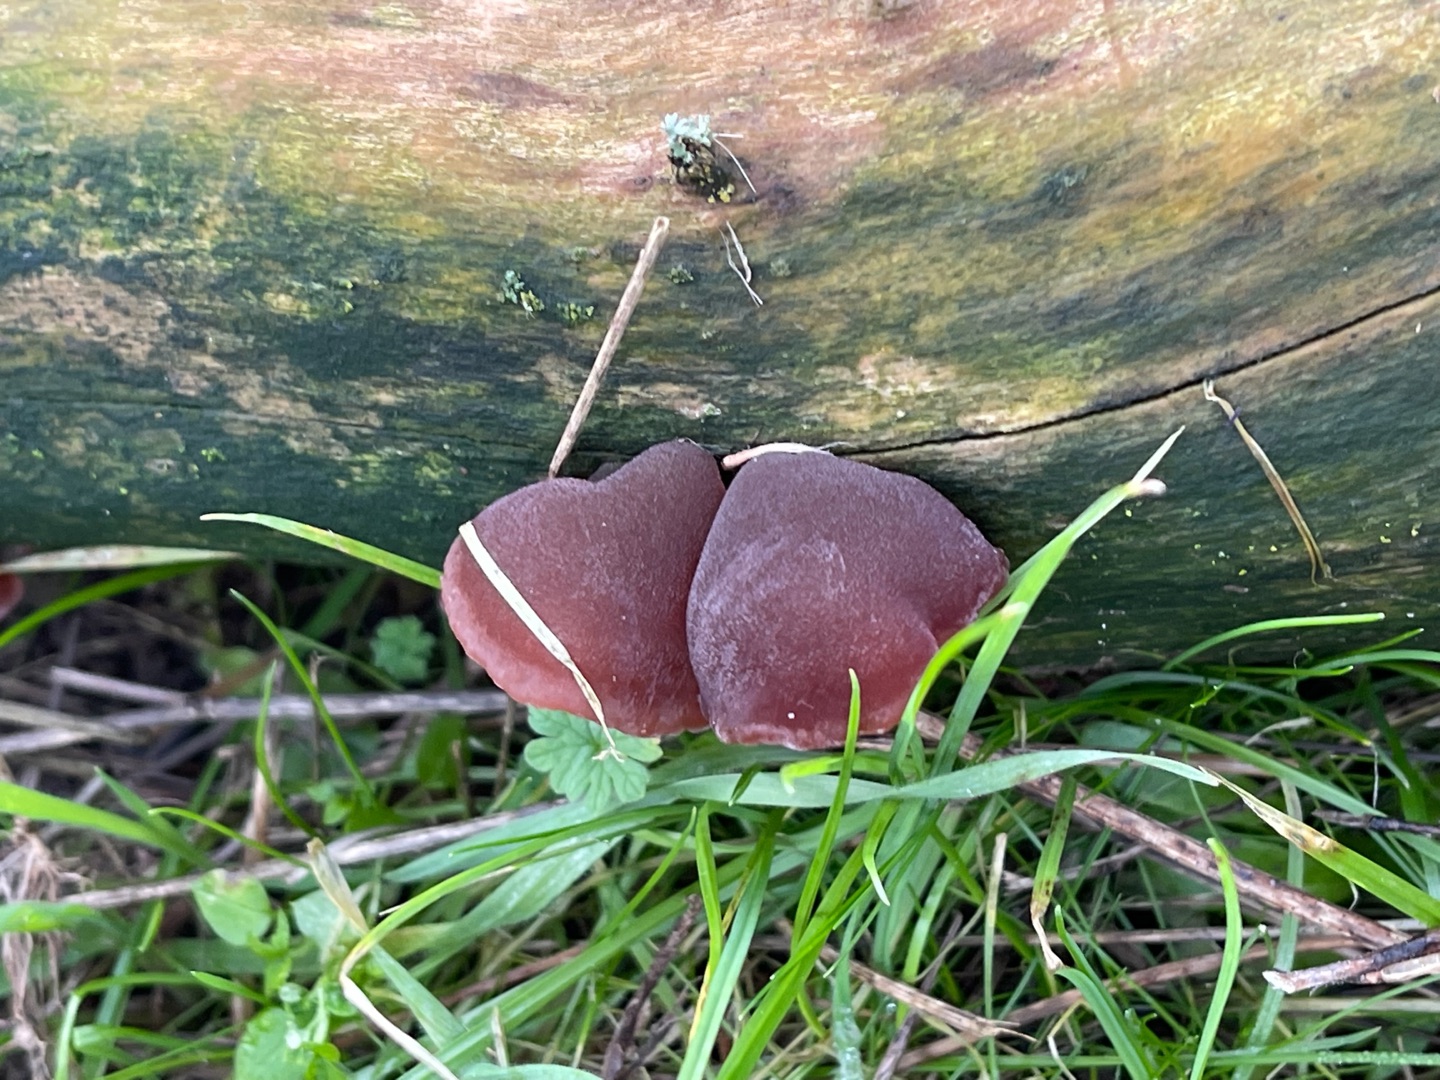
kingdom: Fungi
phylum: Basidiomycota
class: Agaricomycetes
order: Auriculariales
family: Auriculariaceae
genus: Auricularia
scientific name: Auricularia auricula-judae
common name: Almindelig judasøre
